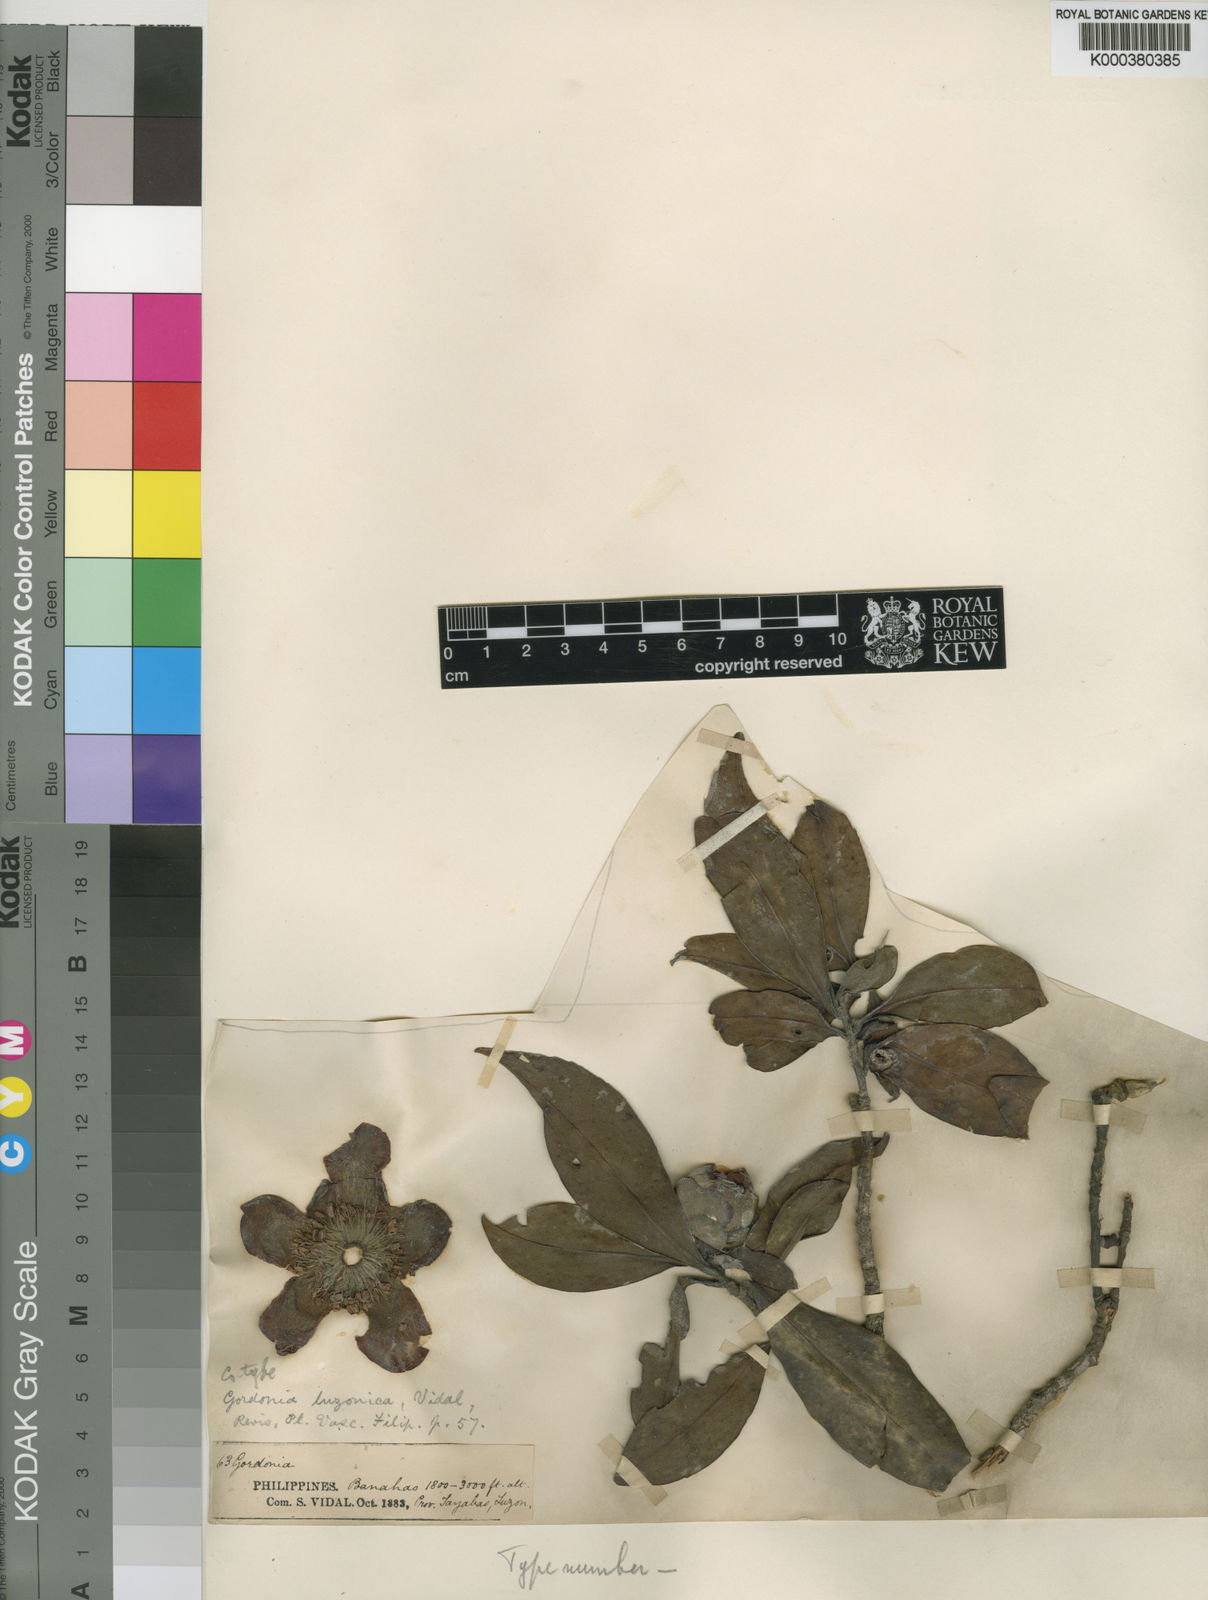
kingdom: Plantae
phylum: Tracheophyta
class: Magnoliopsida
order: Ericales
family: Theaceae
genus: Polyspora
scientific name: Polyspora luzonica
